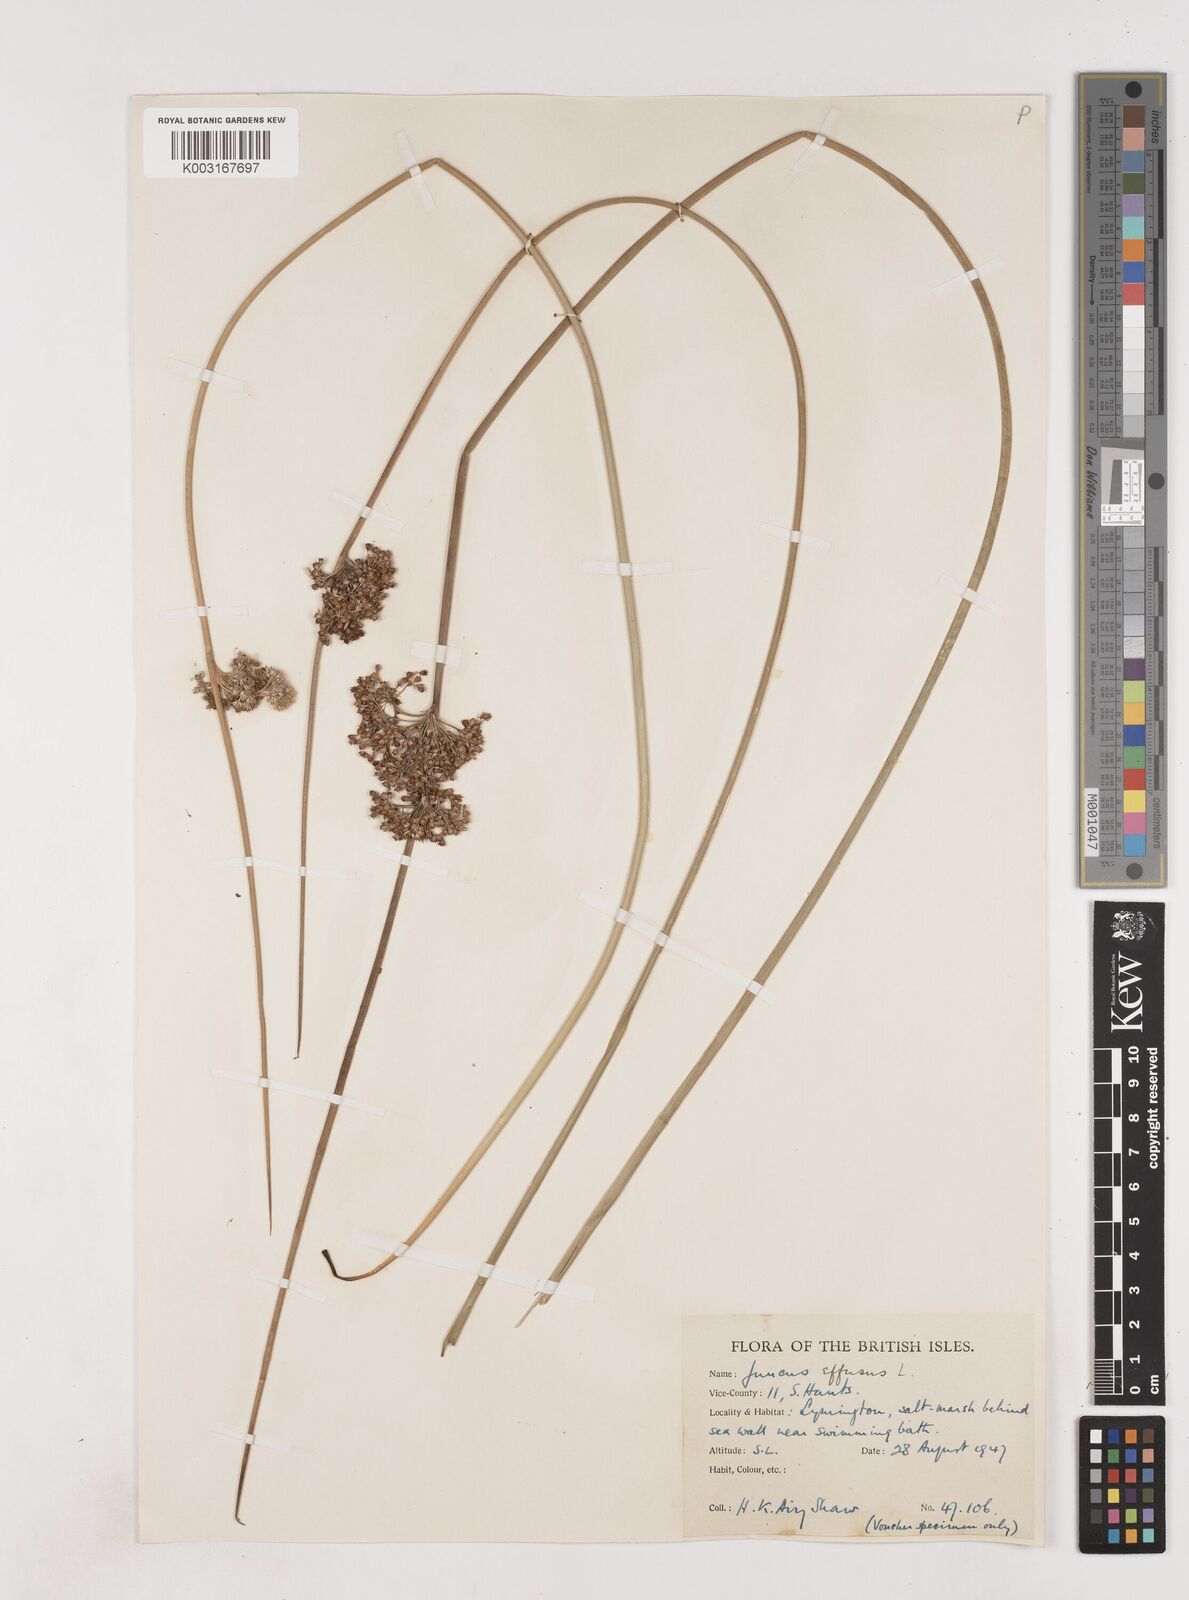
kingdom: Plantae
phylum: Tracheophyta
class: Liliopsida
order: Poales
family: Juncaceae
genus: Juncus
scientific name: Juncus effusus
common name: Soft rush
